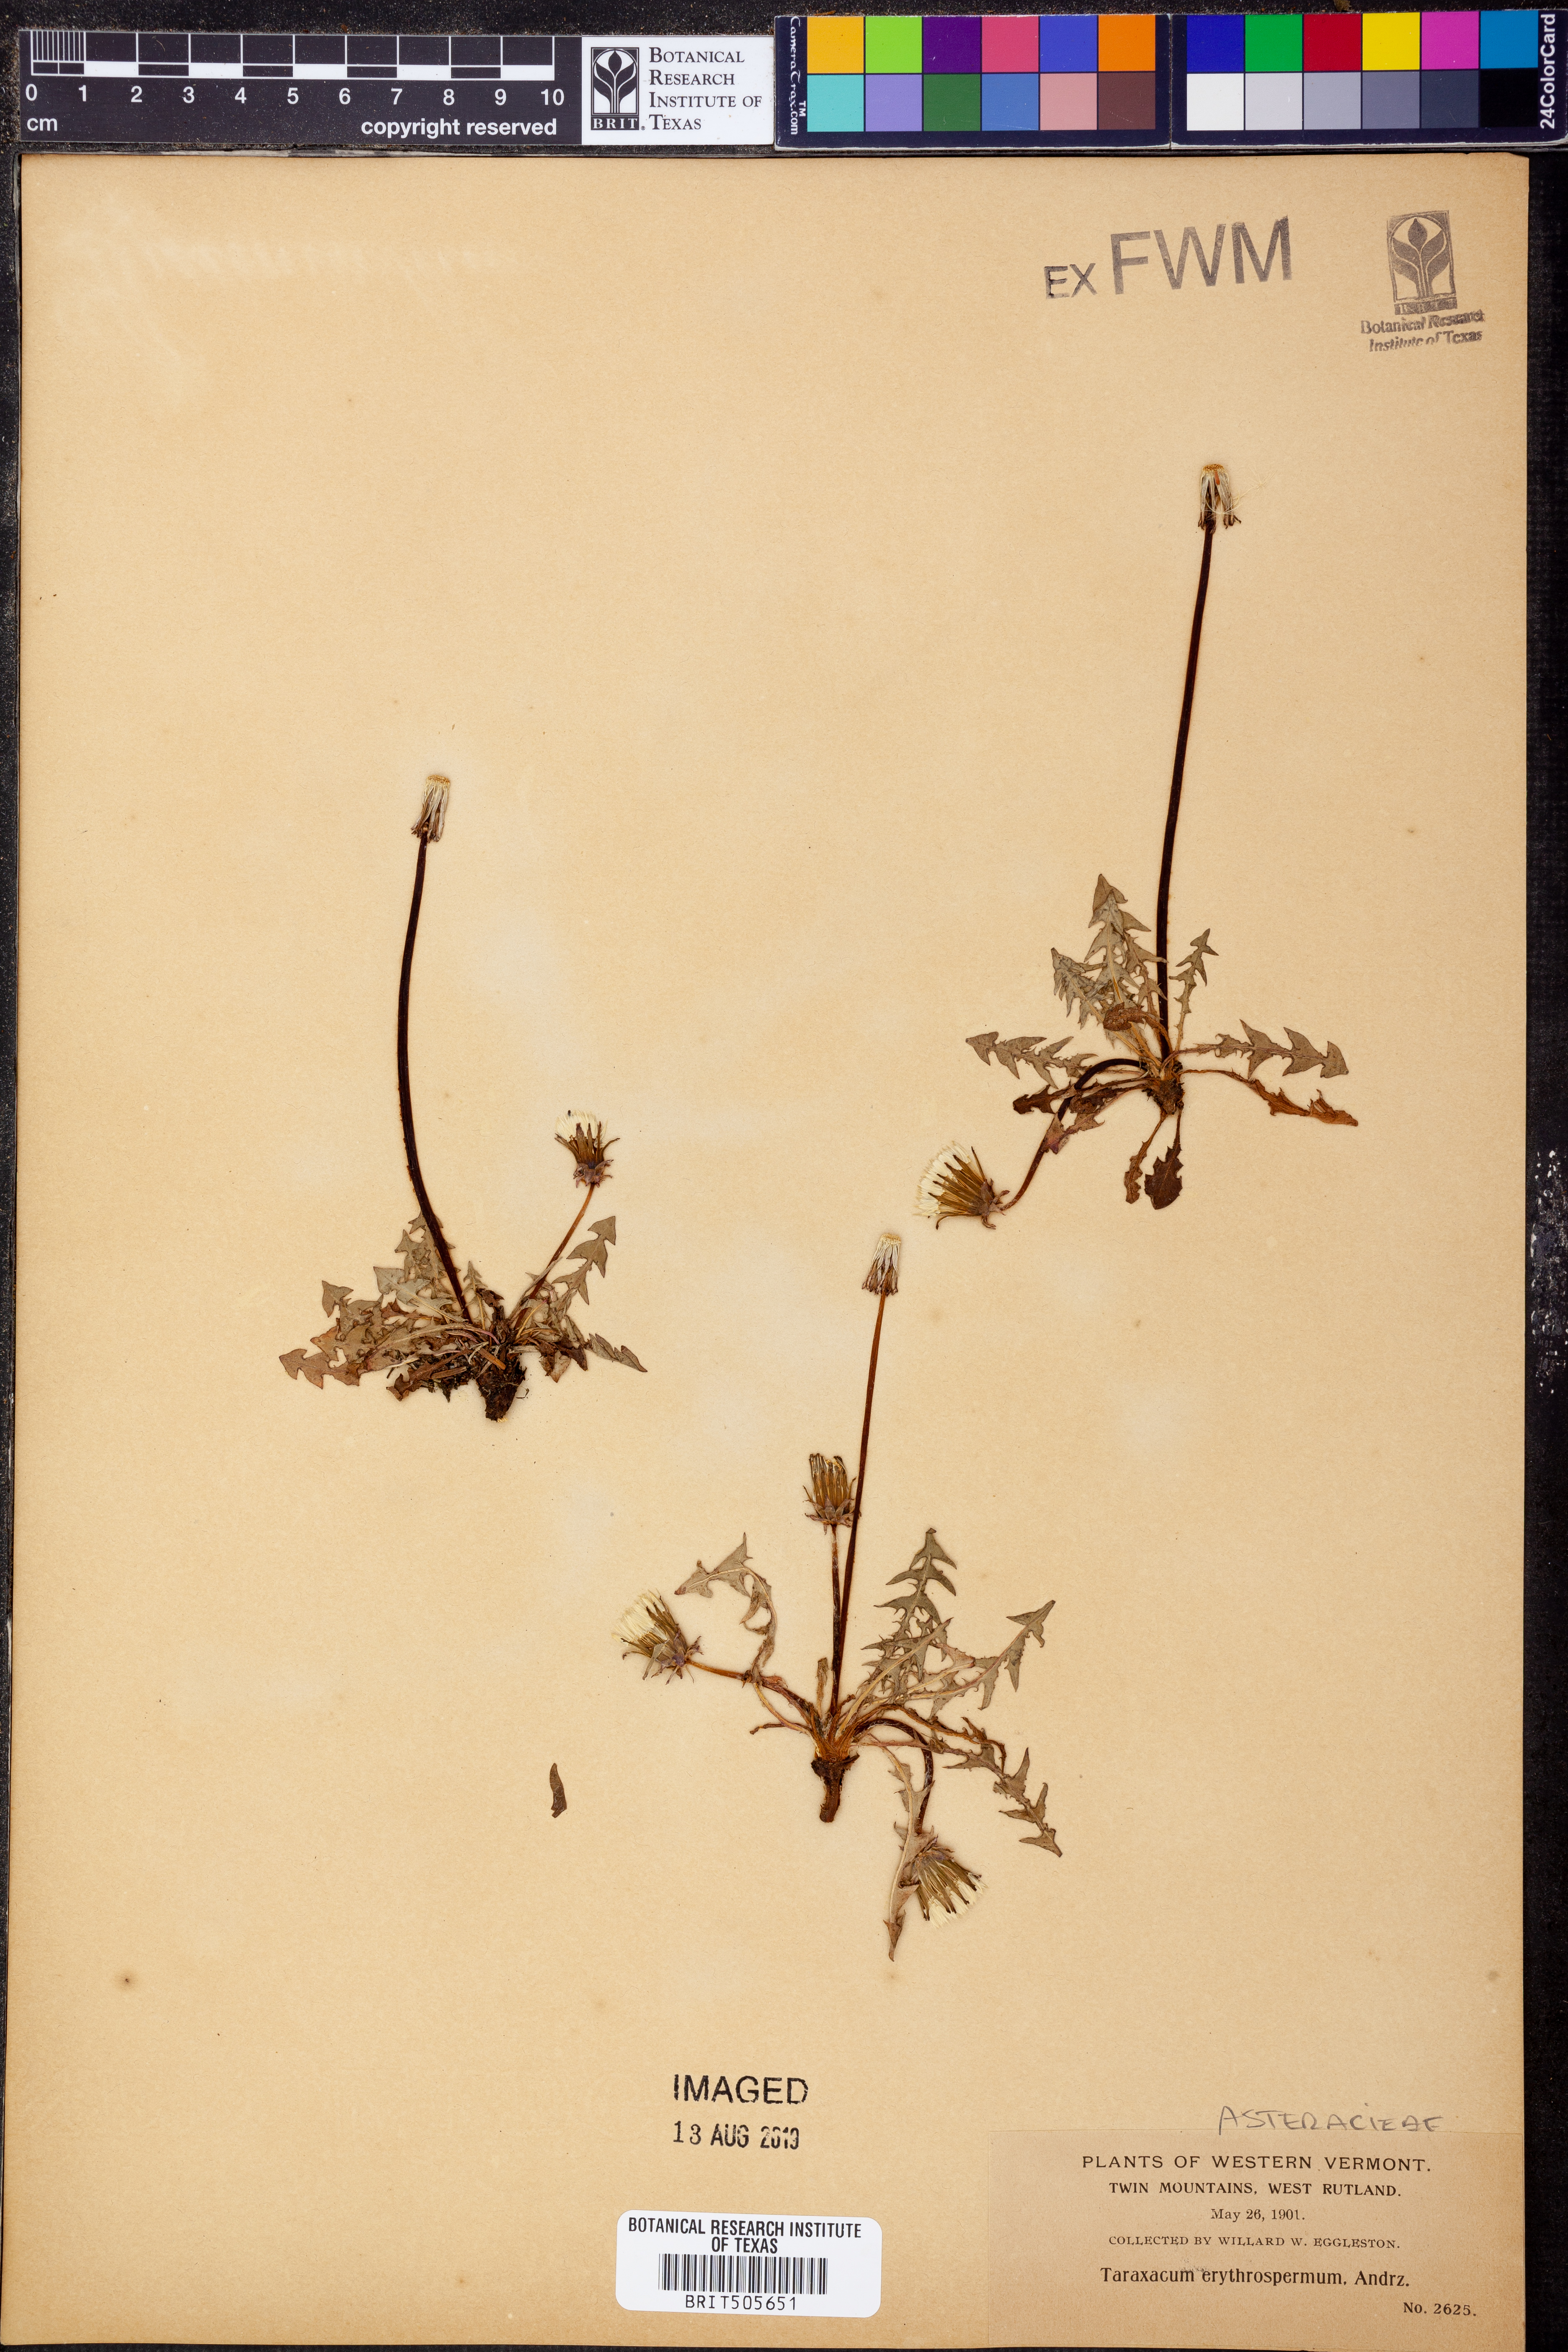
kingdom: Plantae
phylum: Tracheophyta
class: Magnoliopsida
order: Asterales
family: Asteraceae
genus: Taraxacum
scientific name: Taraxacum erythrospermum
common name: Rock dandelion
